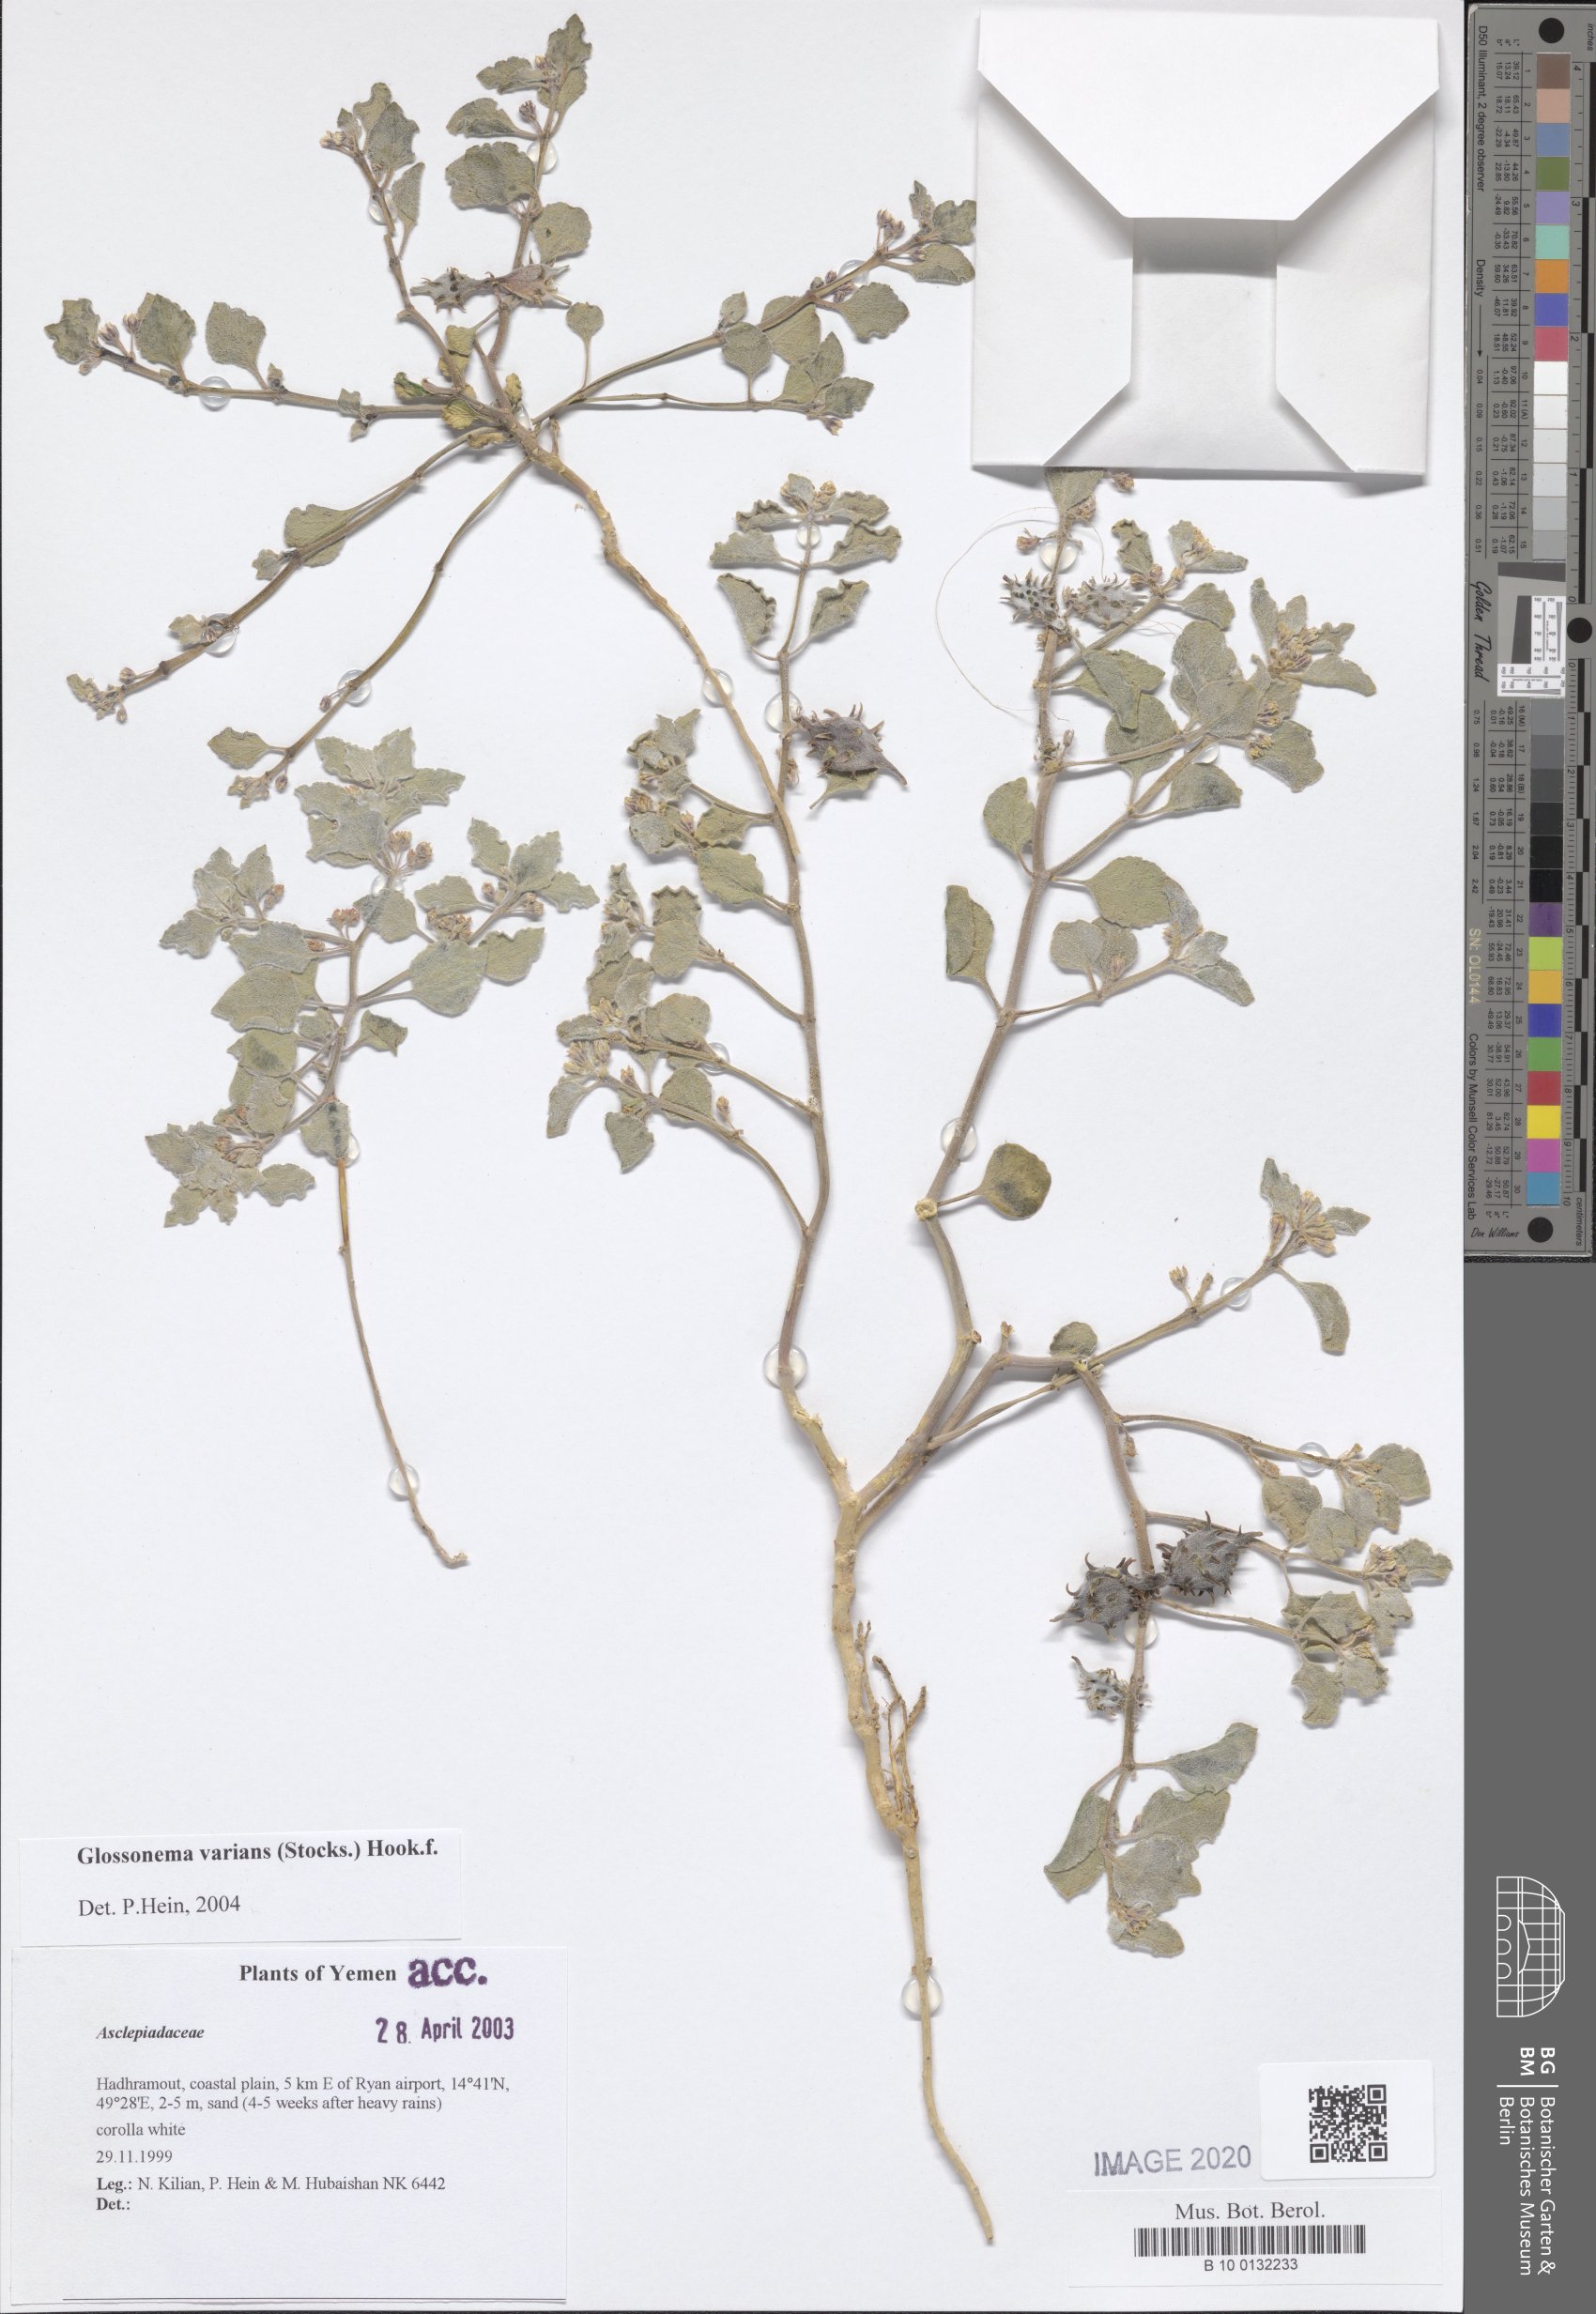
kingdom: Plantae
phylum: Tracheophyta
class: Magnoliopsida
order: Gentianales
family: Apocynaceae
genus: Cynanchum
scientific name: Cynanchum varians
